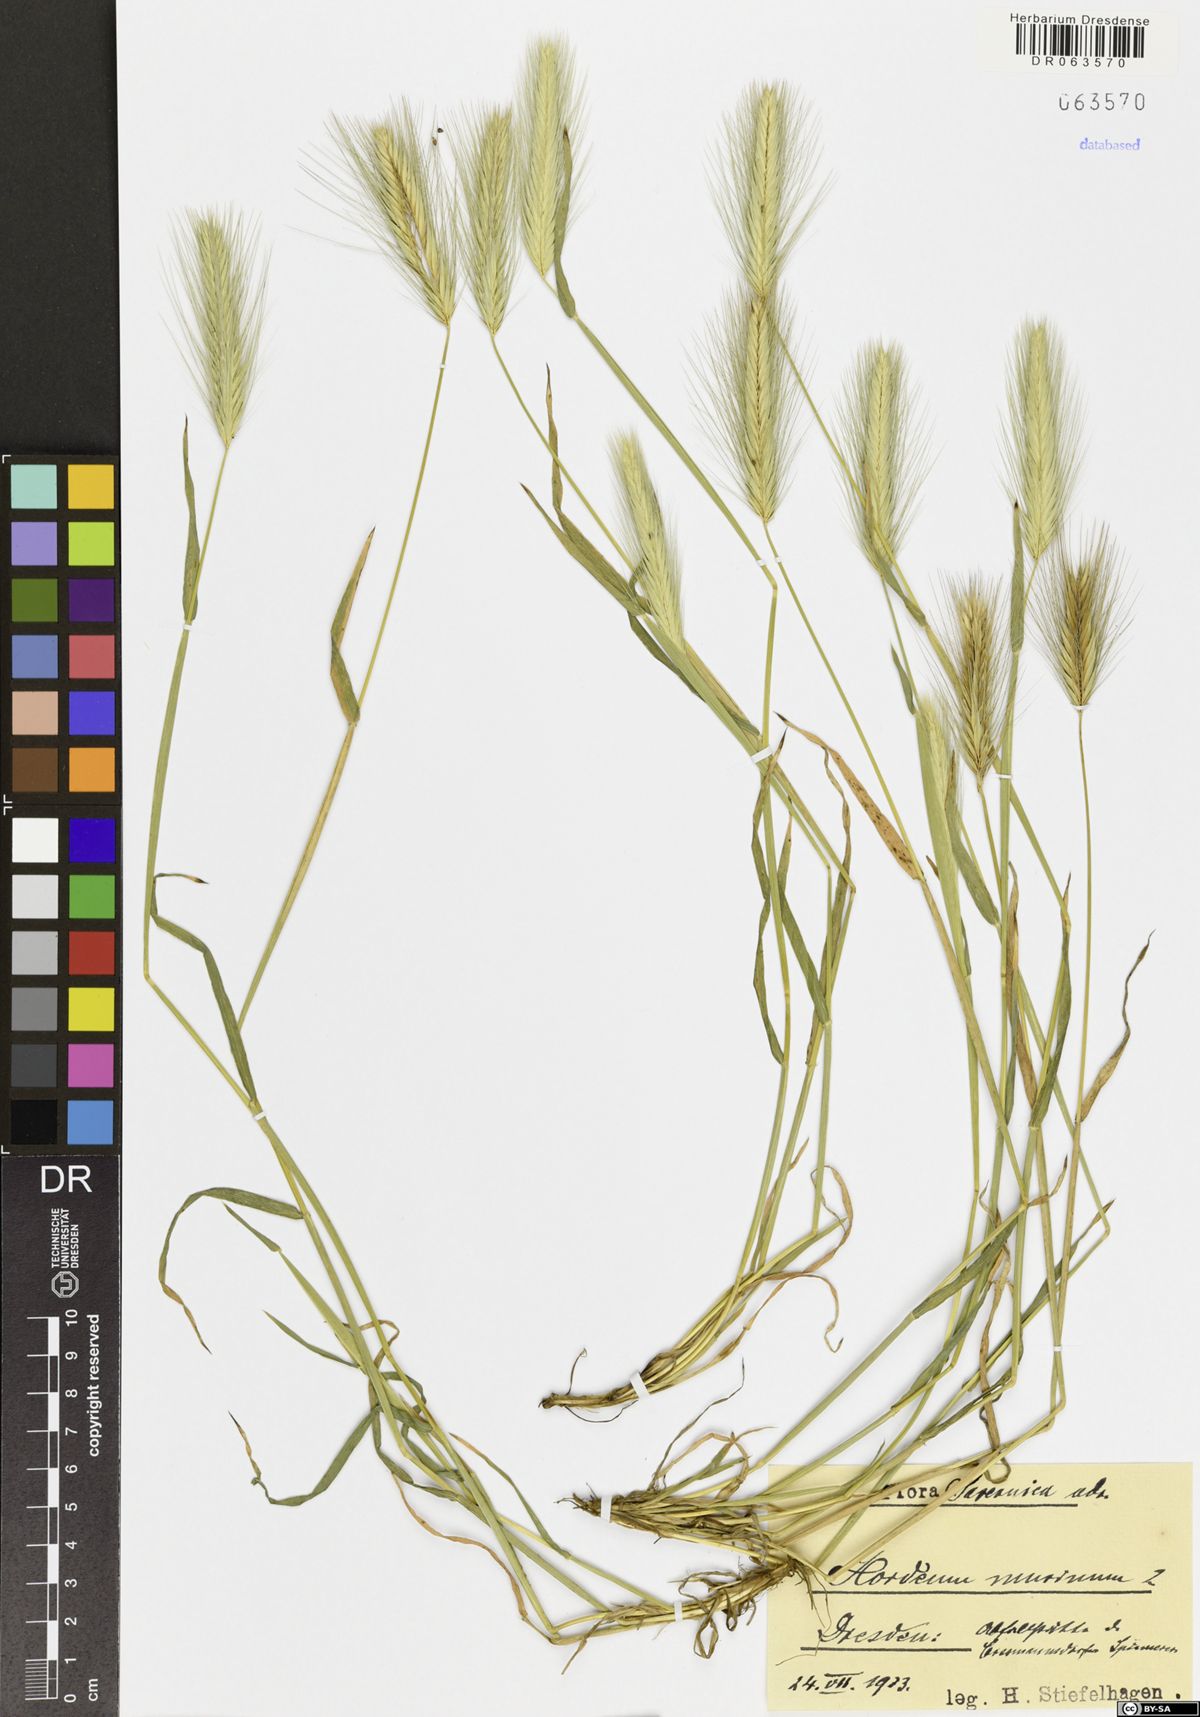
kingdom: Plantae
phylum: Tracheophyta
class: Liliopsida
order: Poales
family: Poaceae
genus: Hordeum
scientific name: Hordeum murinum
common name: Wall barley
